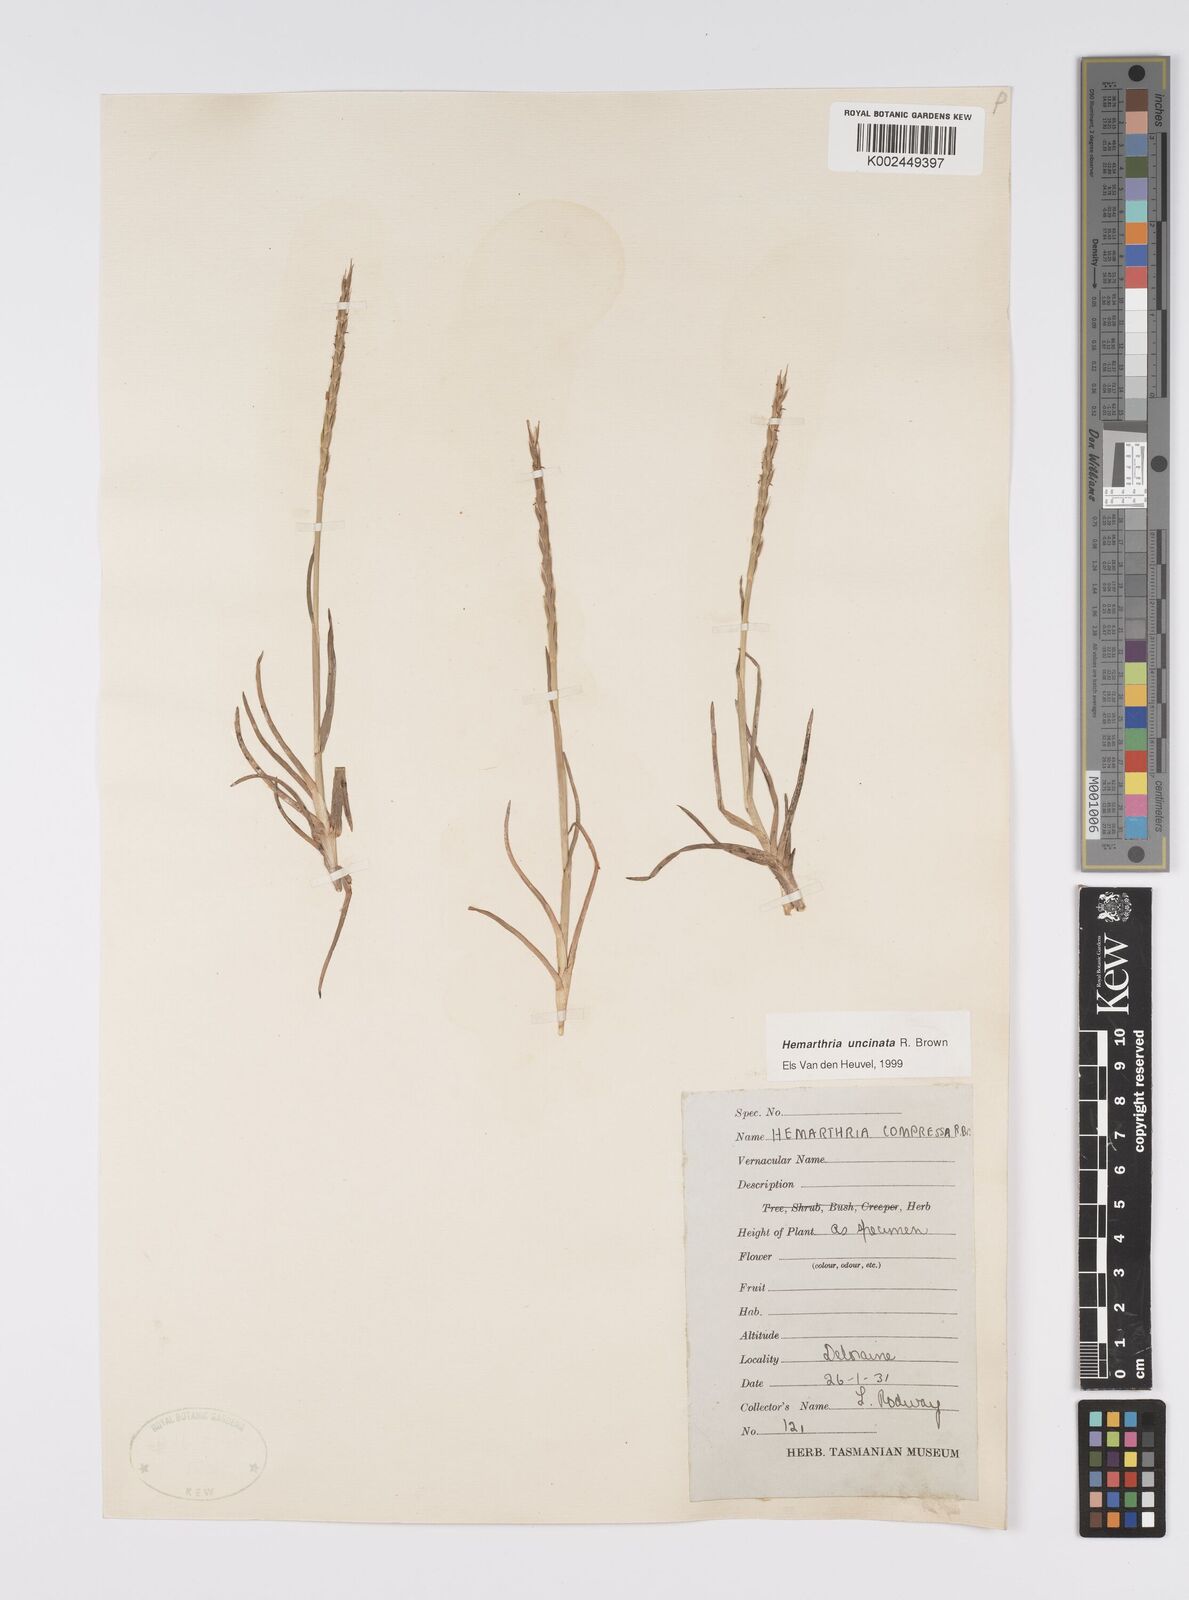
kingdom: Plantae
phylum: Tracheophyta
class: Liliopsida
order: Poales
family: Poaceae
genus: Hemarthria
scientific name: Hemarthria uncinata
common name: Matgrass
